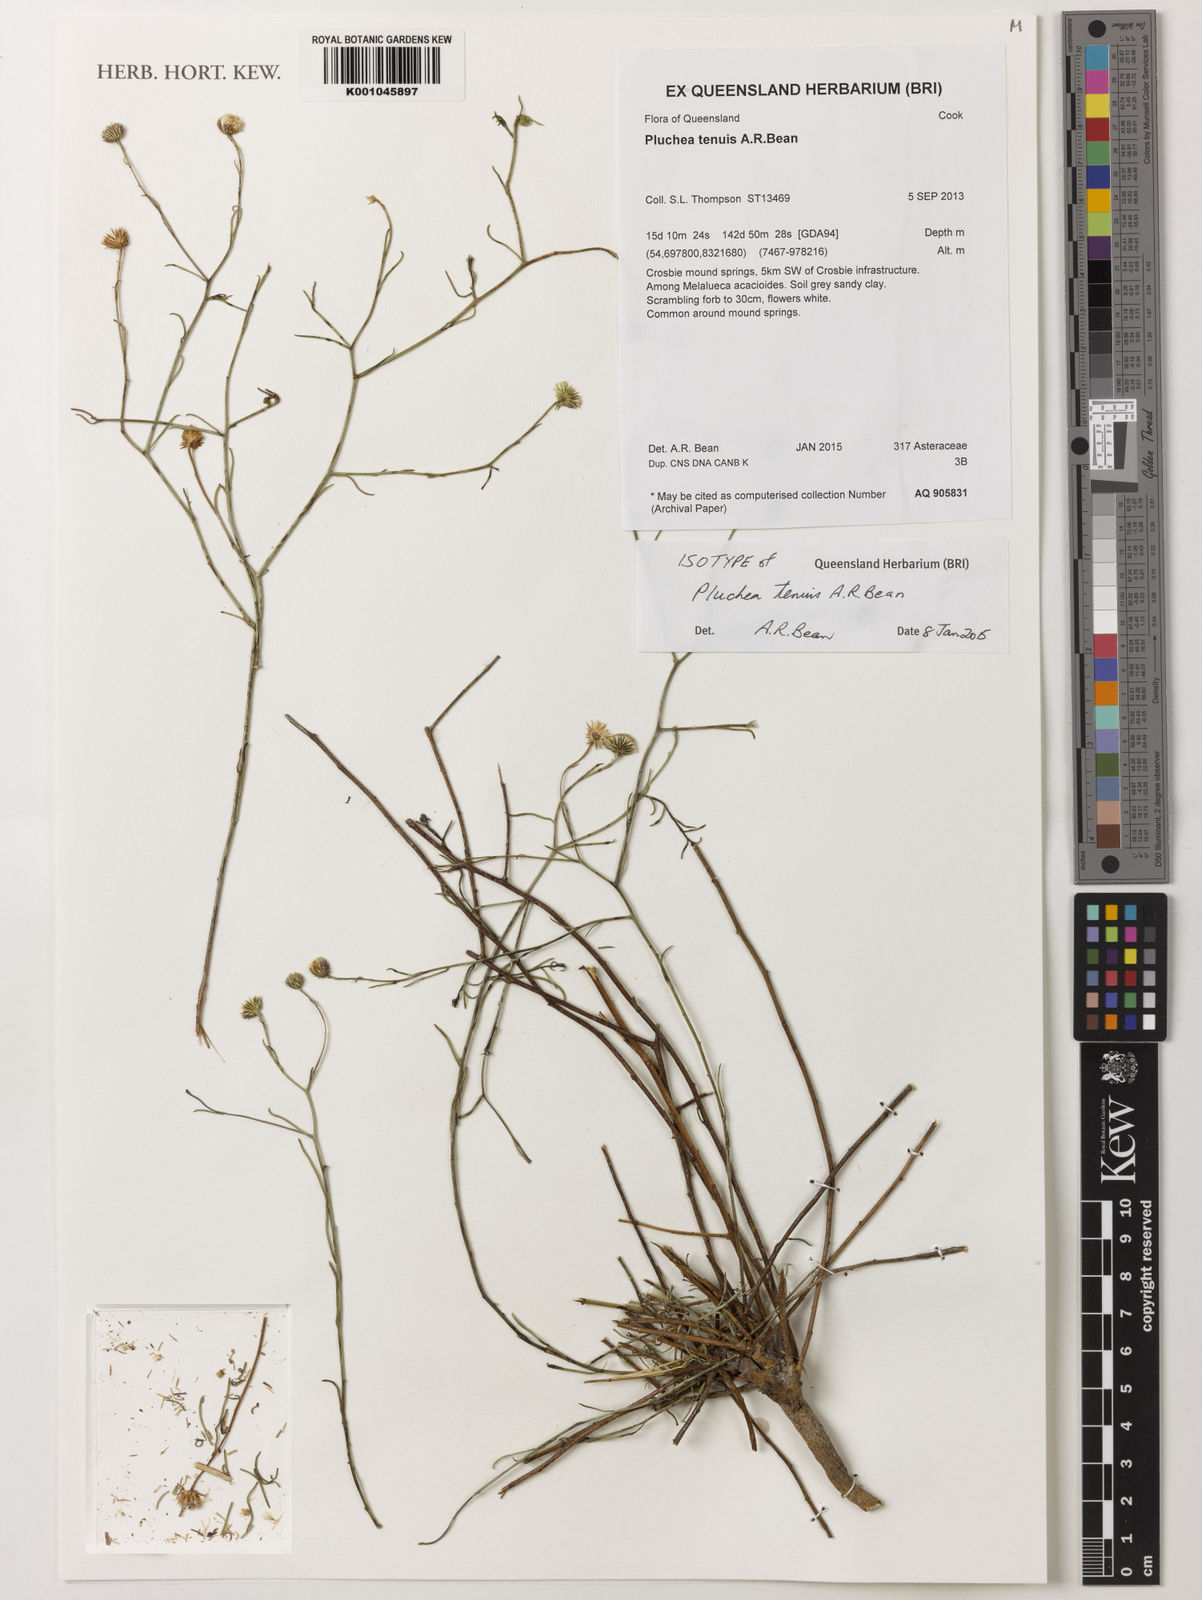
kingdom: Plantae
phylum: Tracheophyta
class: Magnoliopsida
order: Asterales
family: Asteraceae
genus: Pluchea
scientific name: Pluchea tenuis
